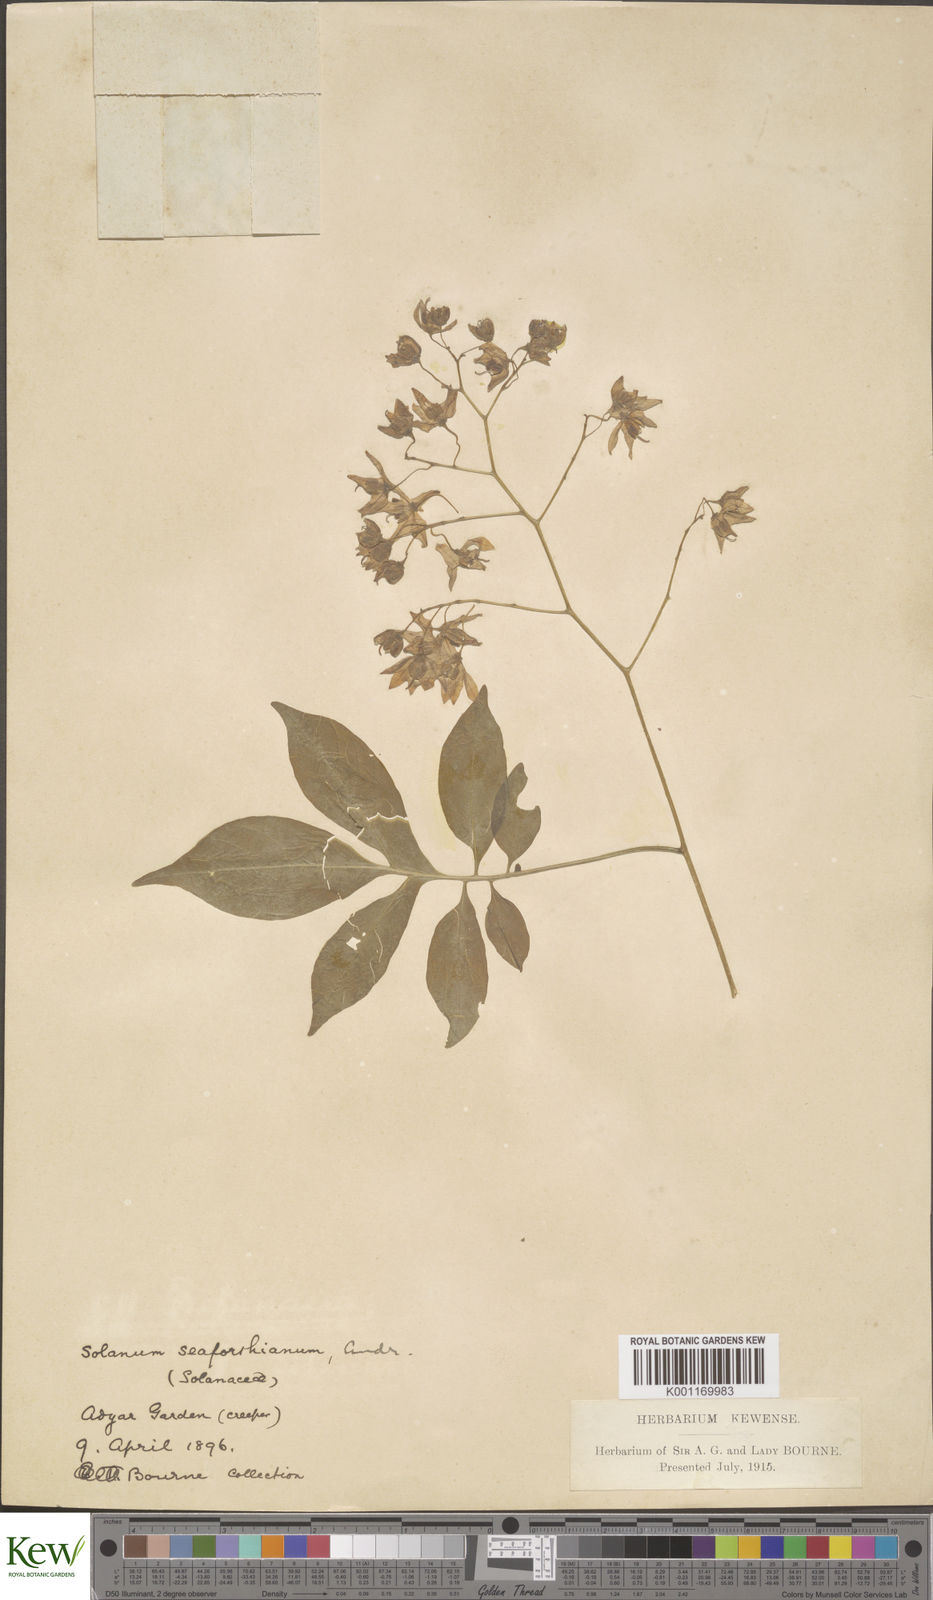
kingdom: Plantae
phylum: Tracheophyta
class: Magnoliopsida
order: Solanales
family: Solanaceae
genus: Solanum
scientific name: Solanum seaforthianum
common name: Brazilian nightshade
